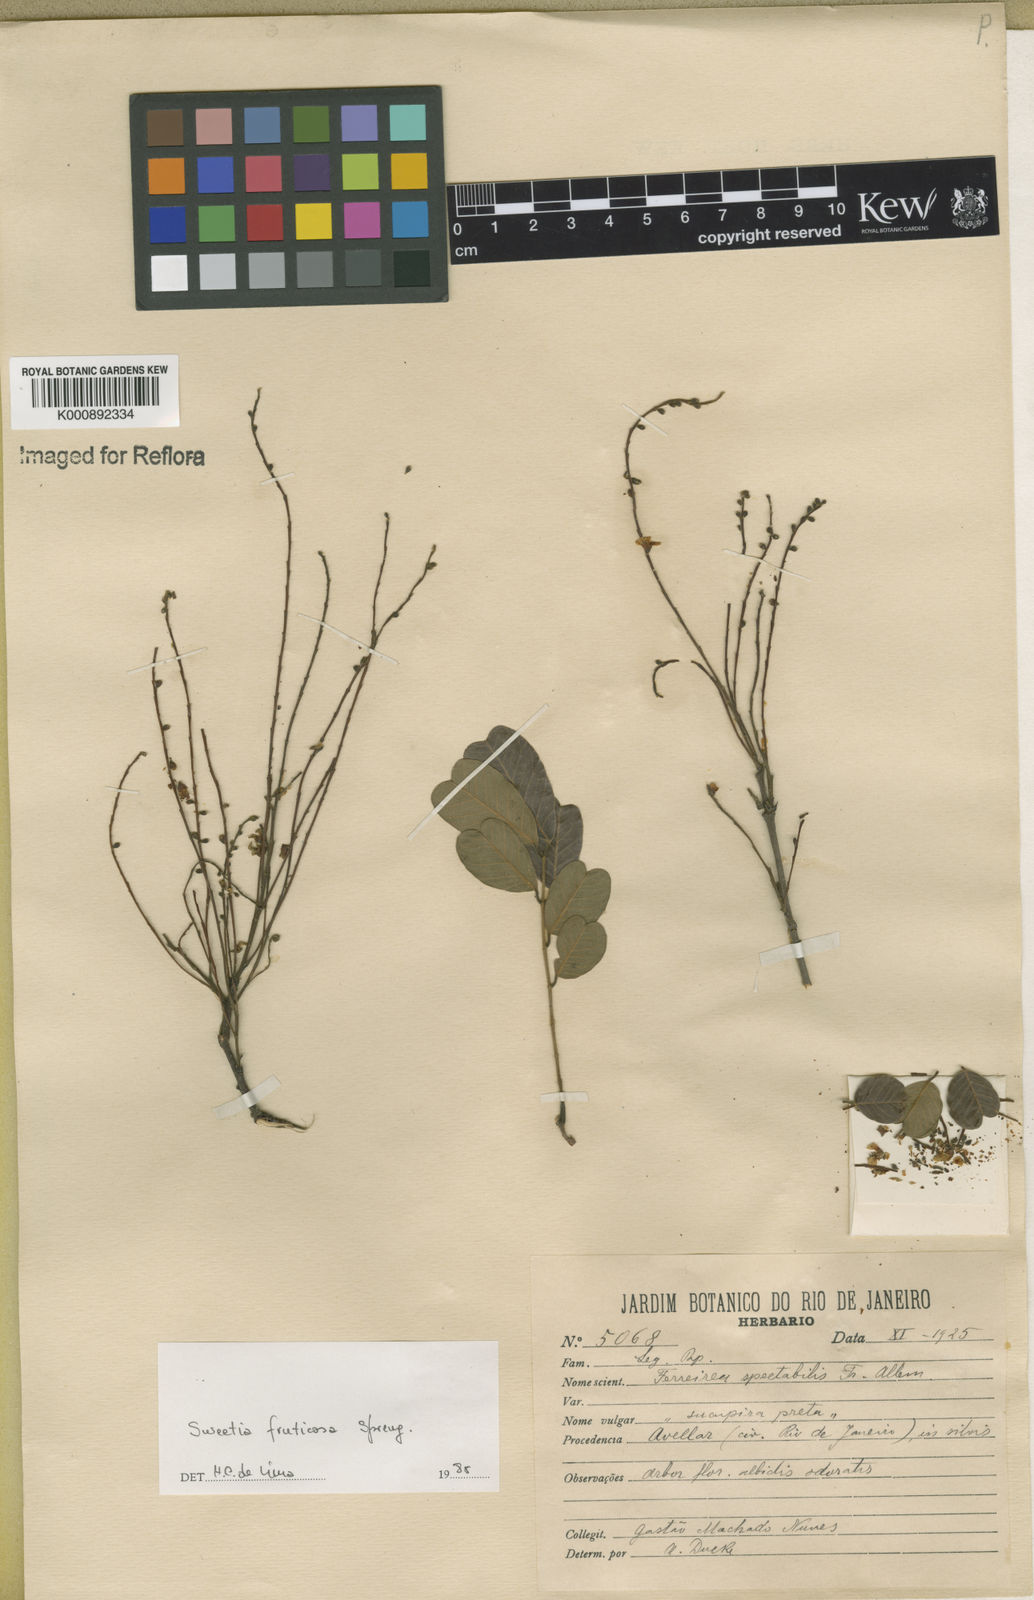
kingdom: Plantae
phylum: Tracheophyta
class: Magnoliopsida
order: Fabales
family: Fabaceae
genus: Sweetia
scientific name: Sweetia fruticosa
